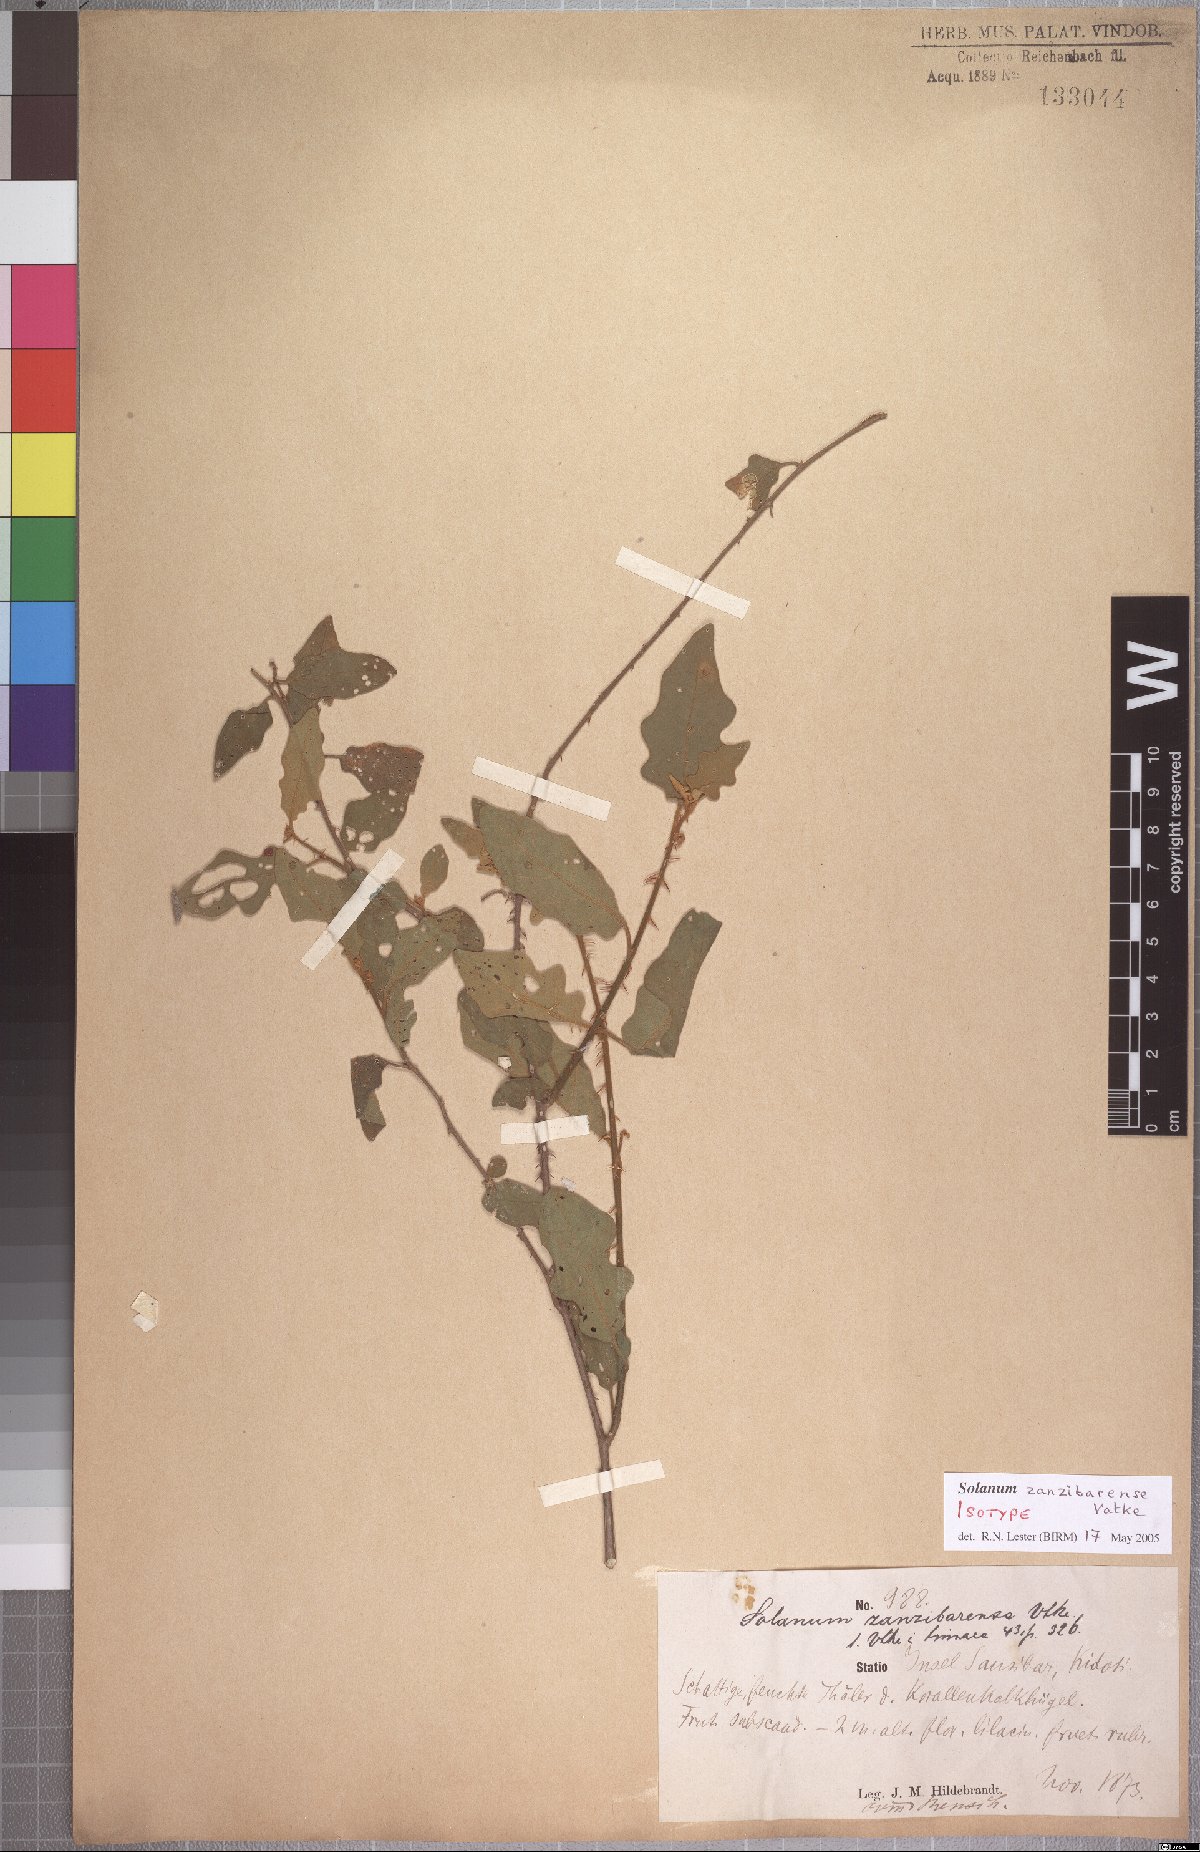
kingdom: Plantae
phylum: Tracheophyta
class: Magnoliopsida
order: Solanales
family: Solanaceae
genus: Solanum
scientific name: Solanum zanzibarense
